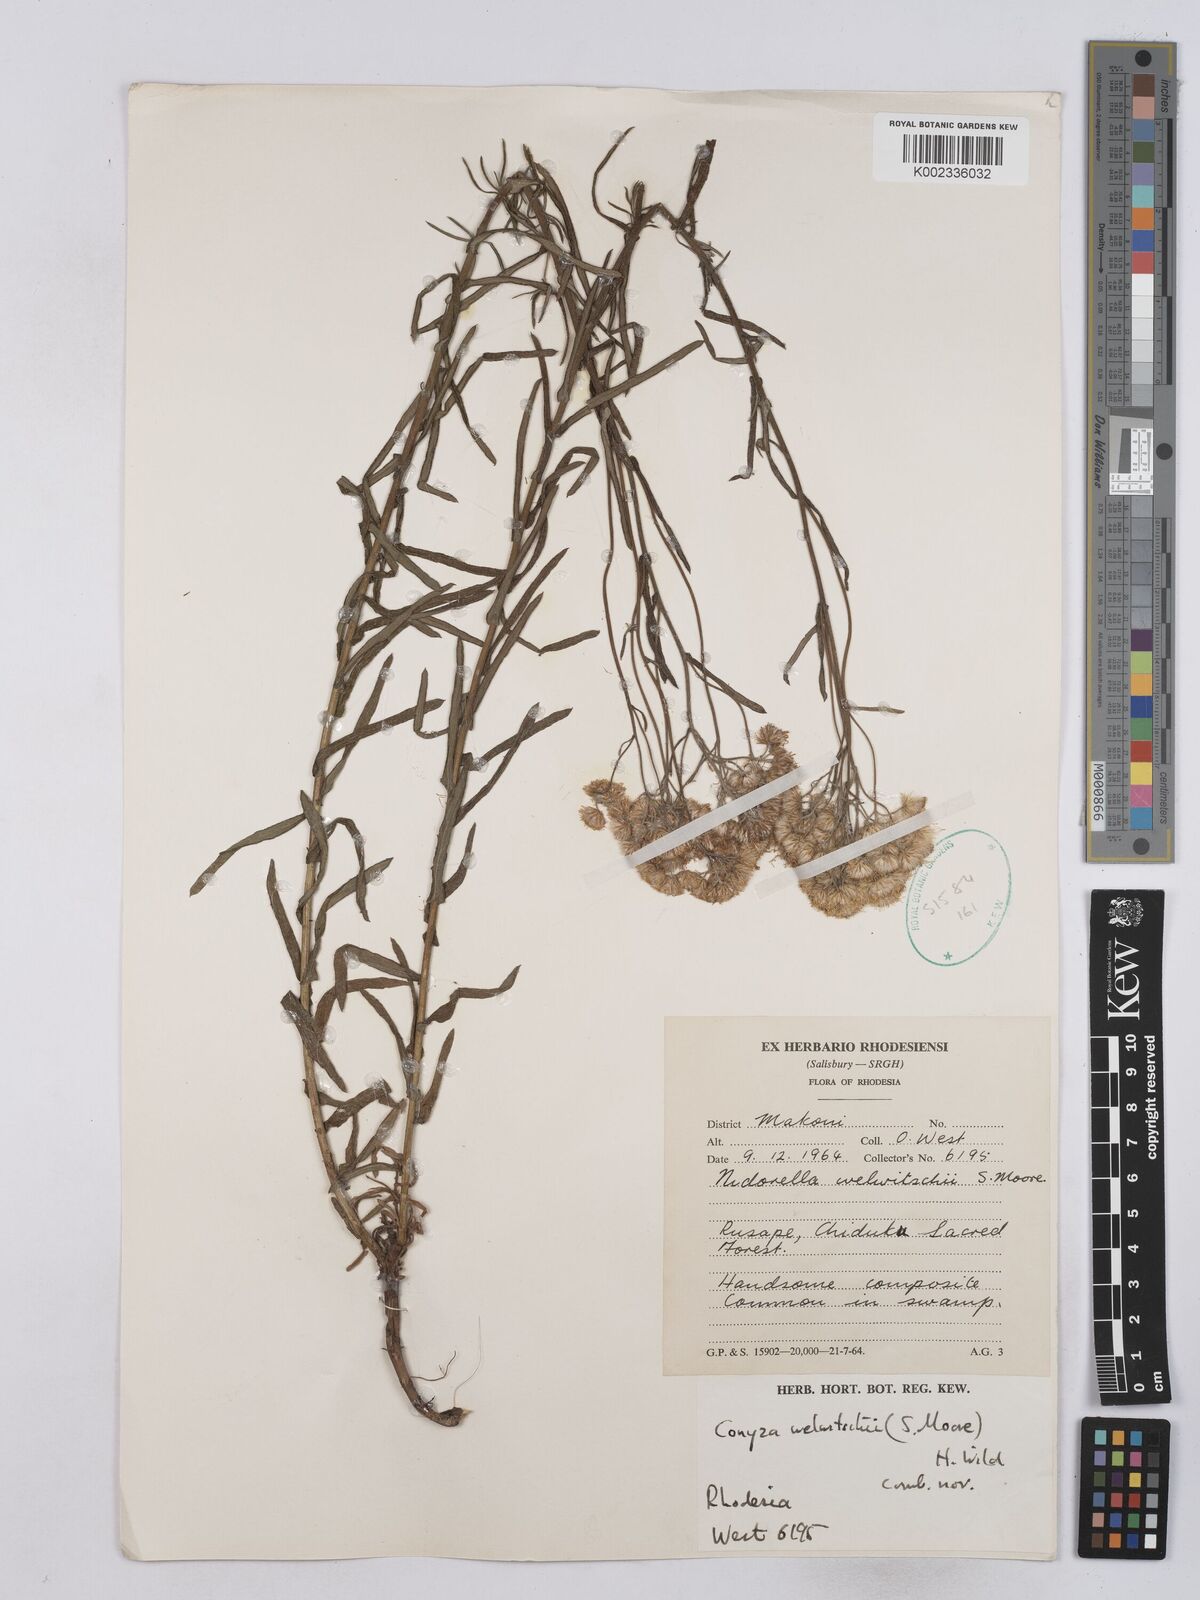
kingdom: Plantae
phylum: Tracheophyta
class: Magnoliopsida
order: Asterales
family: Asteraceae
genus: Nidorella
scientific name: Nidorella welwitschii
